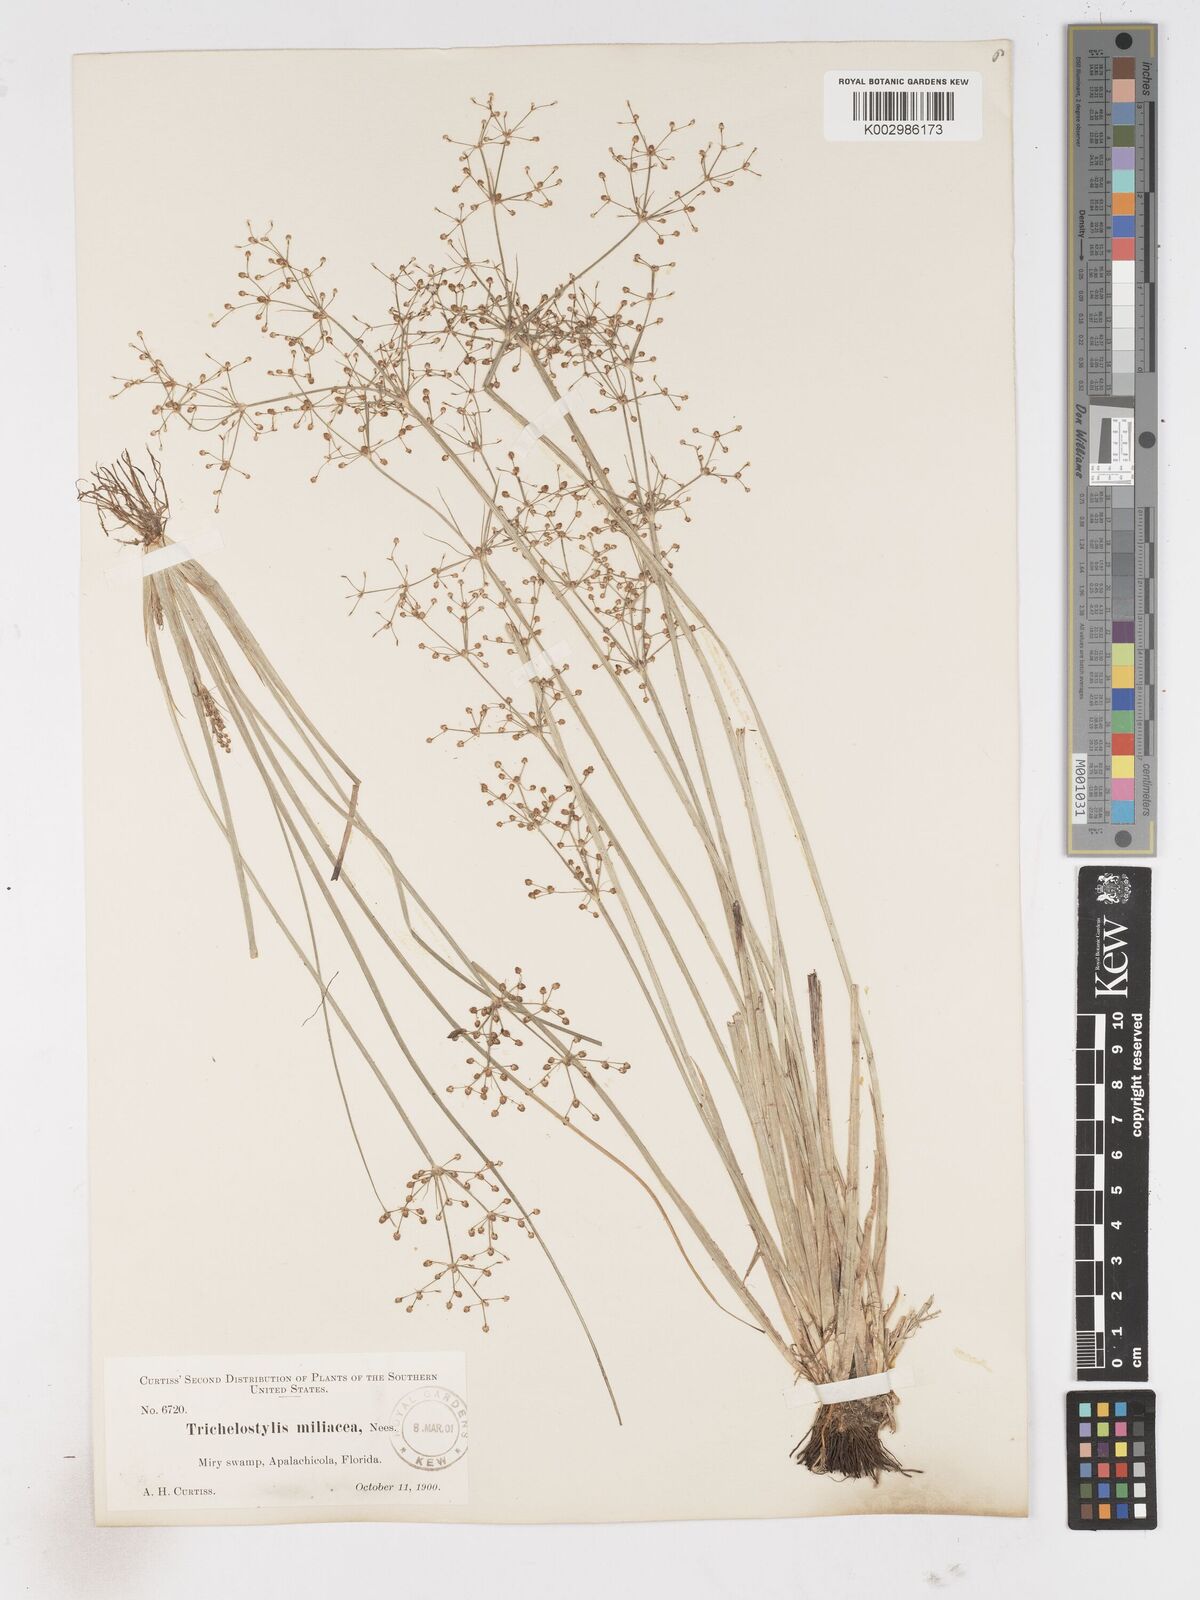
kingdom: Plantae
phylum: Tracheophyta
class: Liliopsida
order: Poales
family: Cyperaceae
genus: Fimbristylis
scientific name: Fimbristylis littoralis
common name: Fimbry
